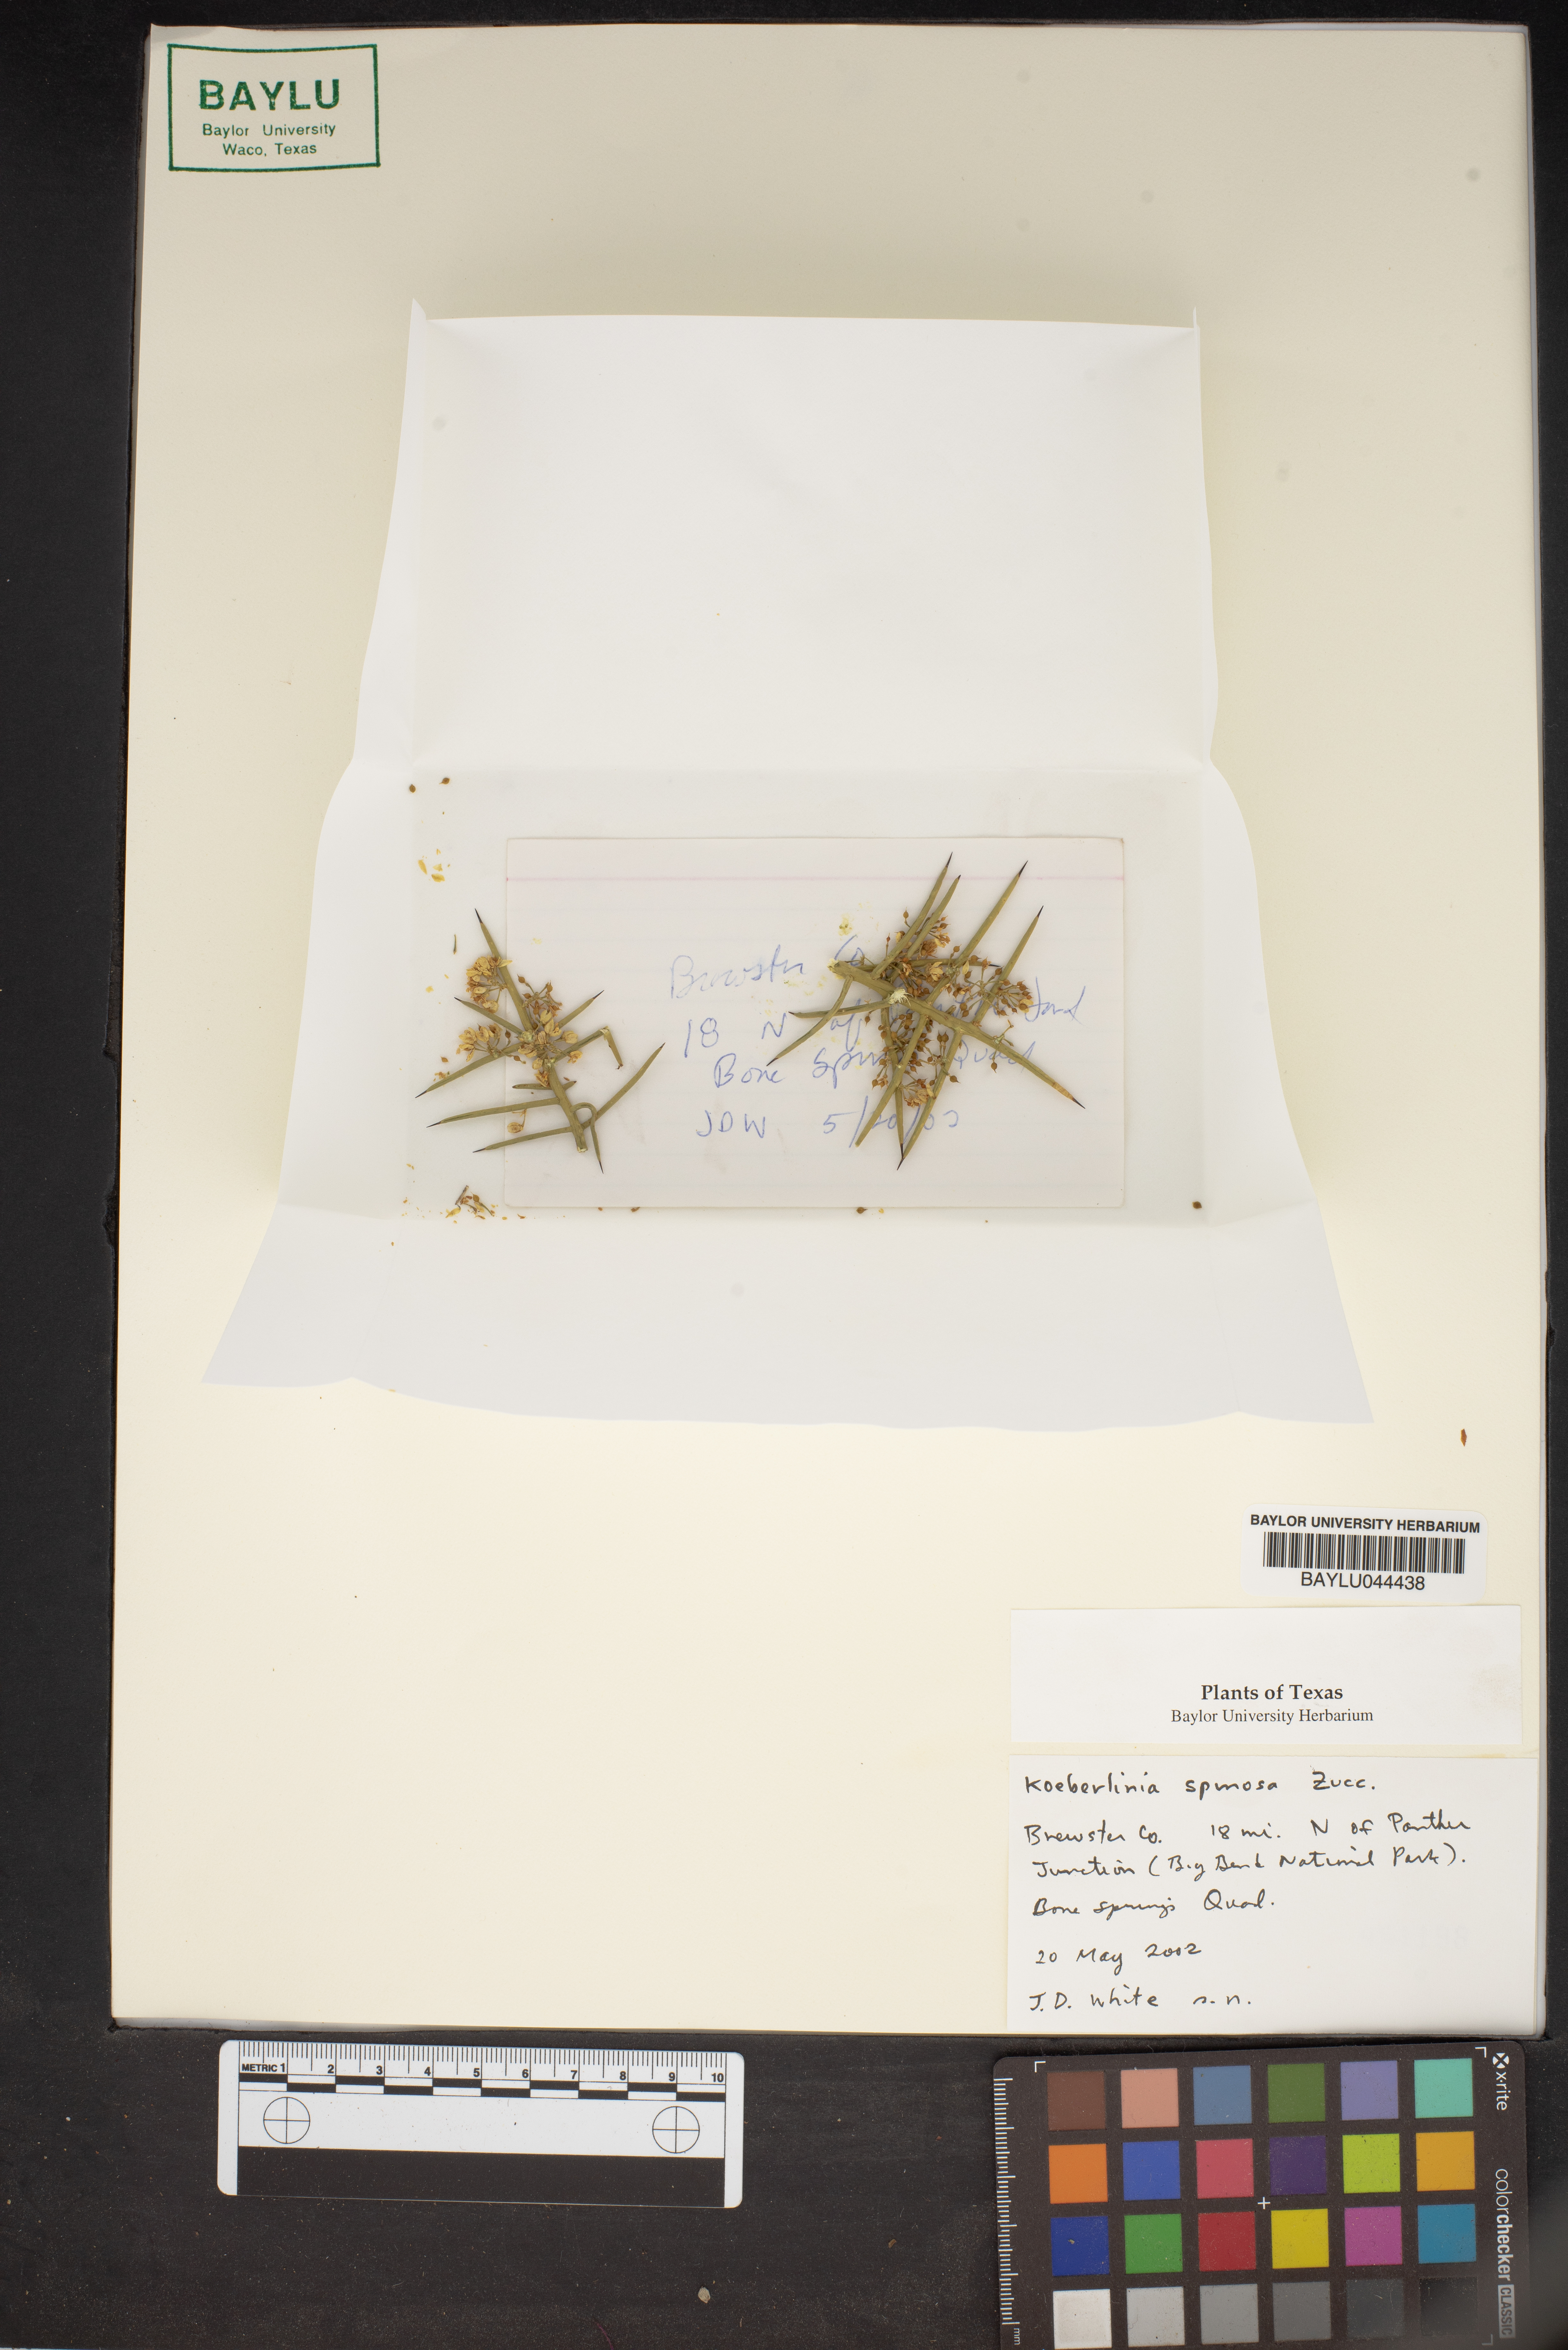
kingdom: Plantae
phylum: Tracheophyta
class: Magnoliopsida
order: Brassicales
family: Koeberliniaceae
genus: Koeberlinia
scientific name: Koeberlinia spinosa
